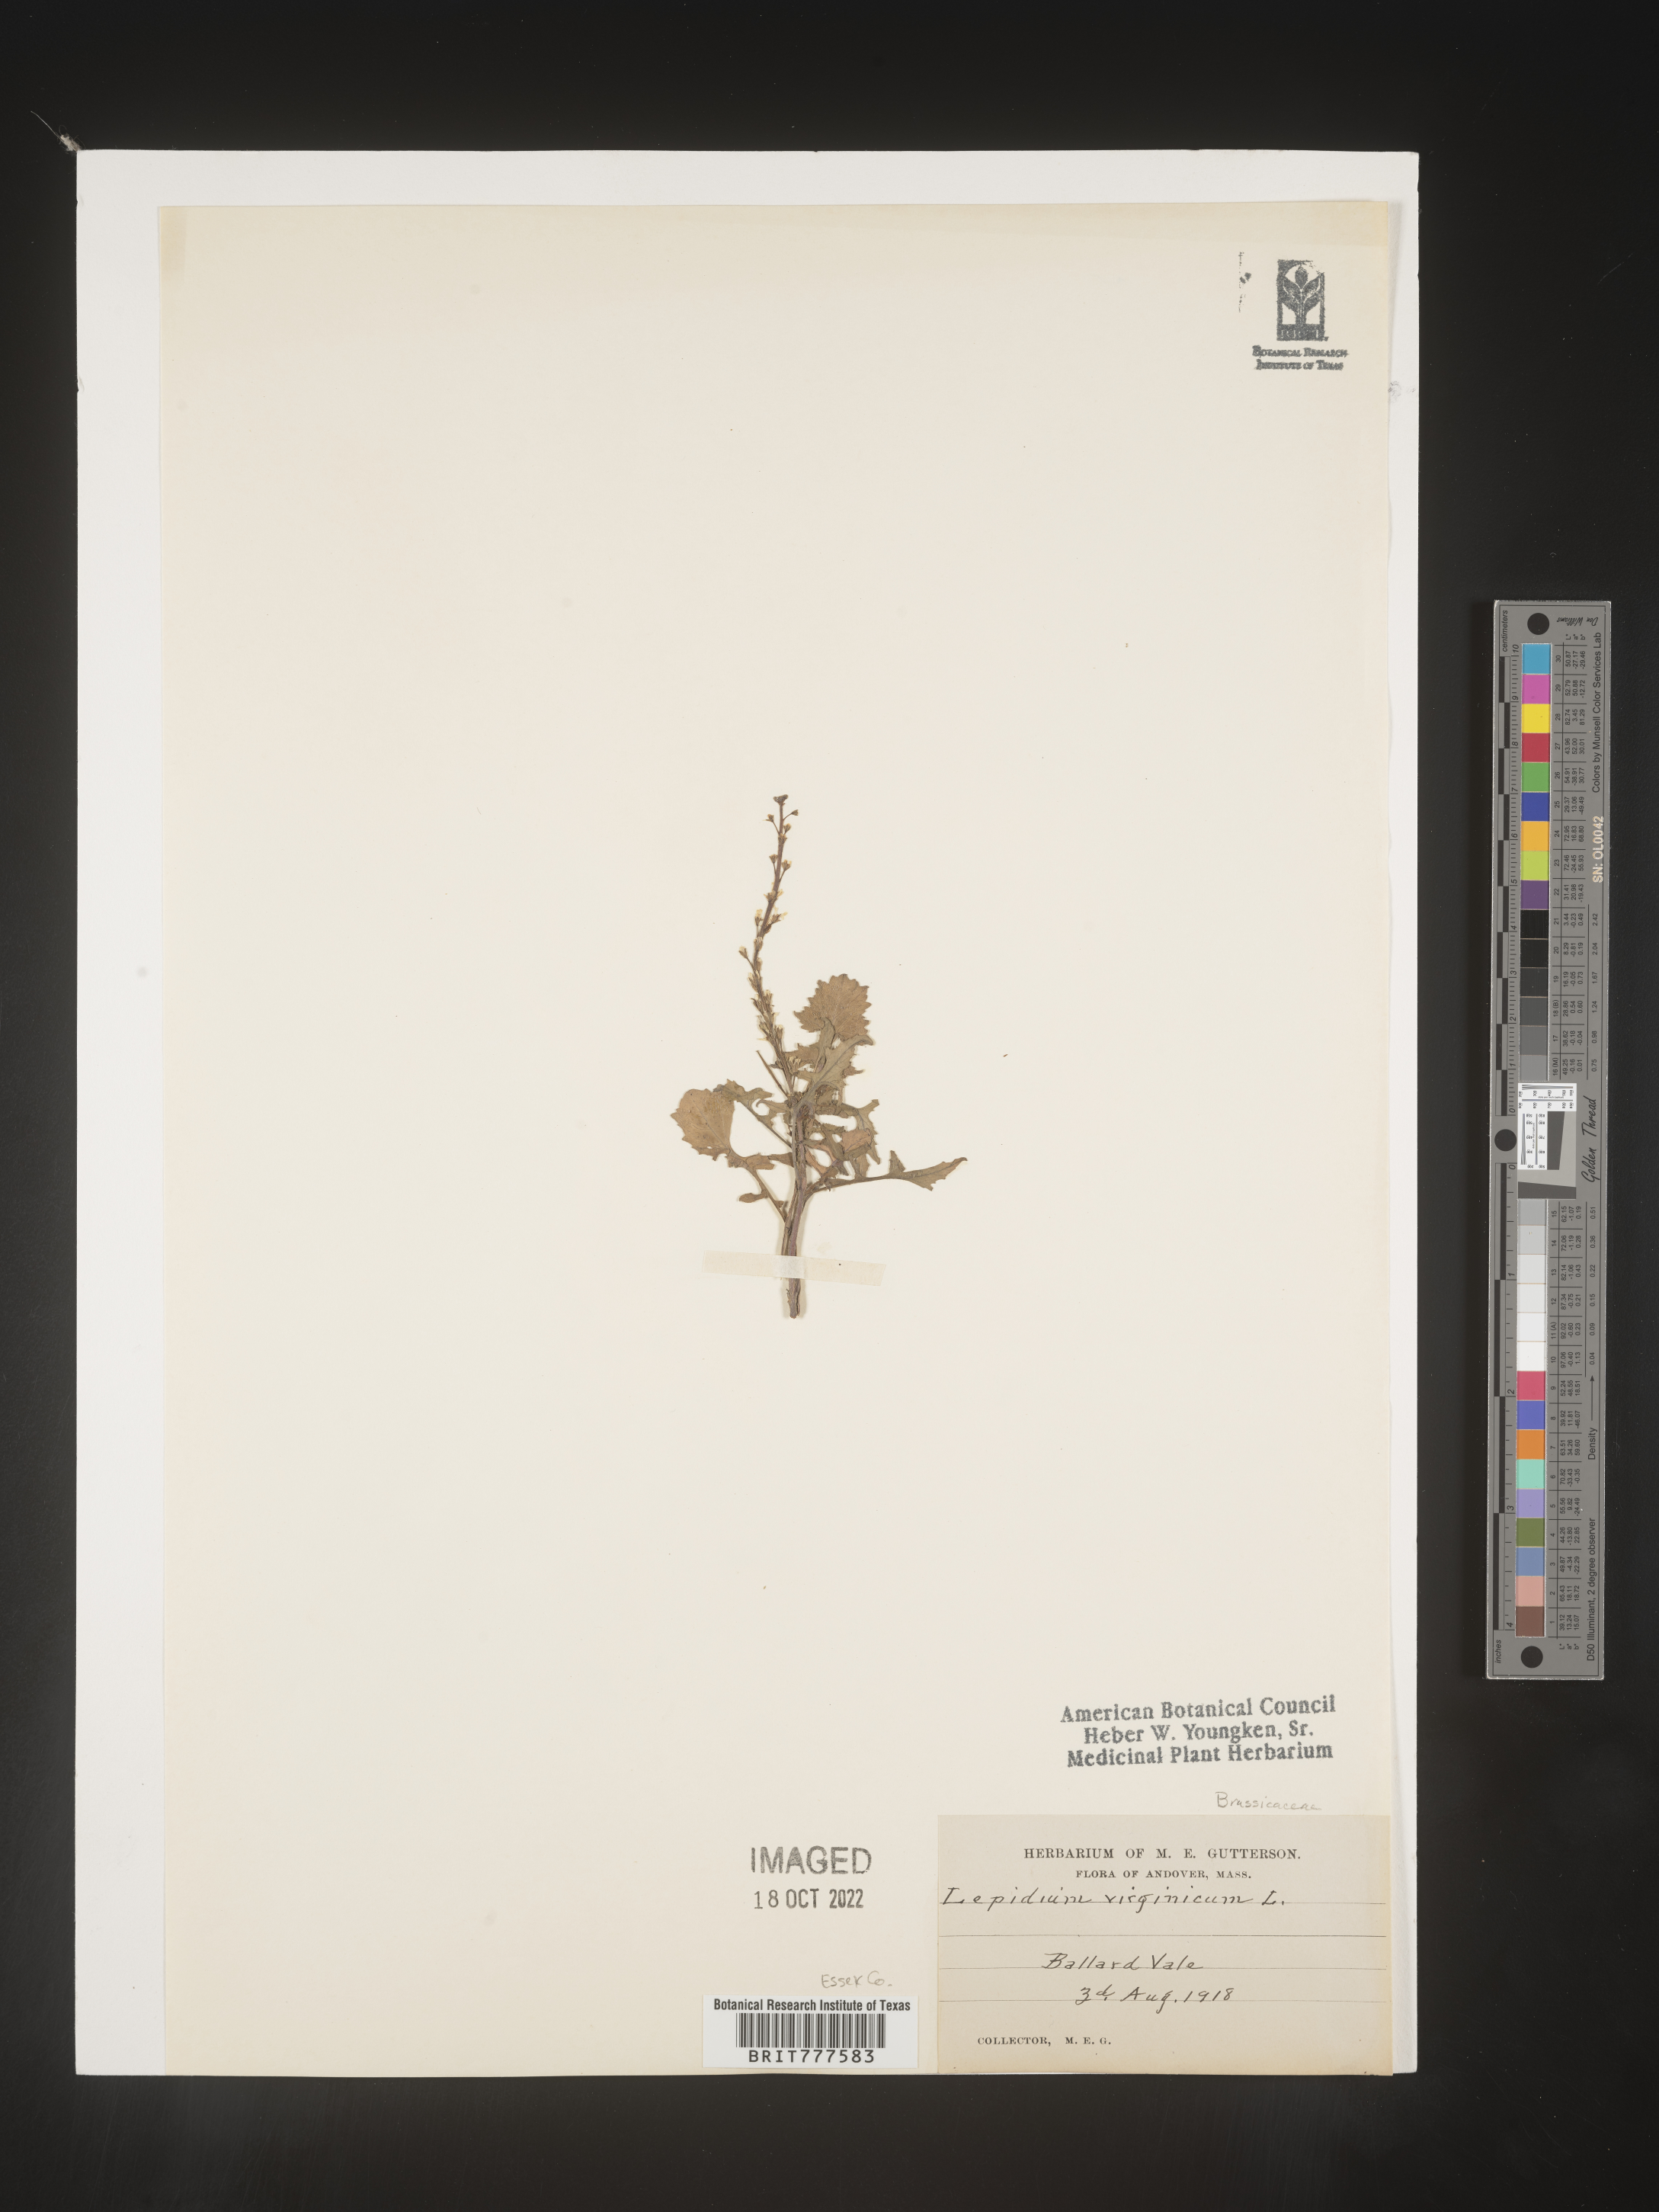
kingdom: Plantae
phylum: Tracheophyta
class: Magnoliopsida
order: Brassicales
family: Brassicaceae
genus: Lepidium
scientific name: Lepidium virginicum
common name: Least pepperwort
